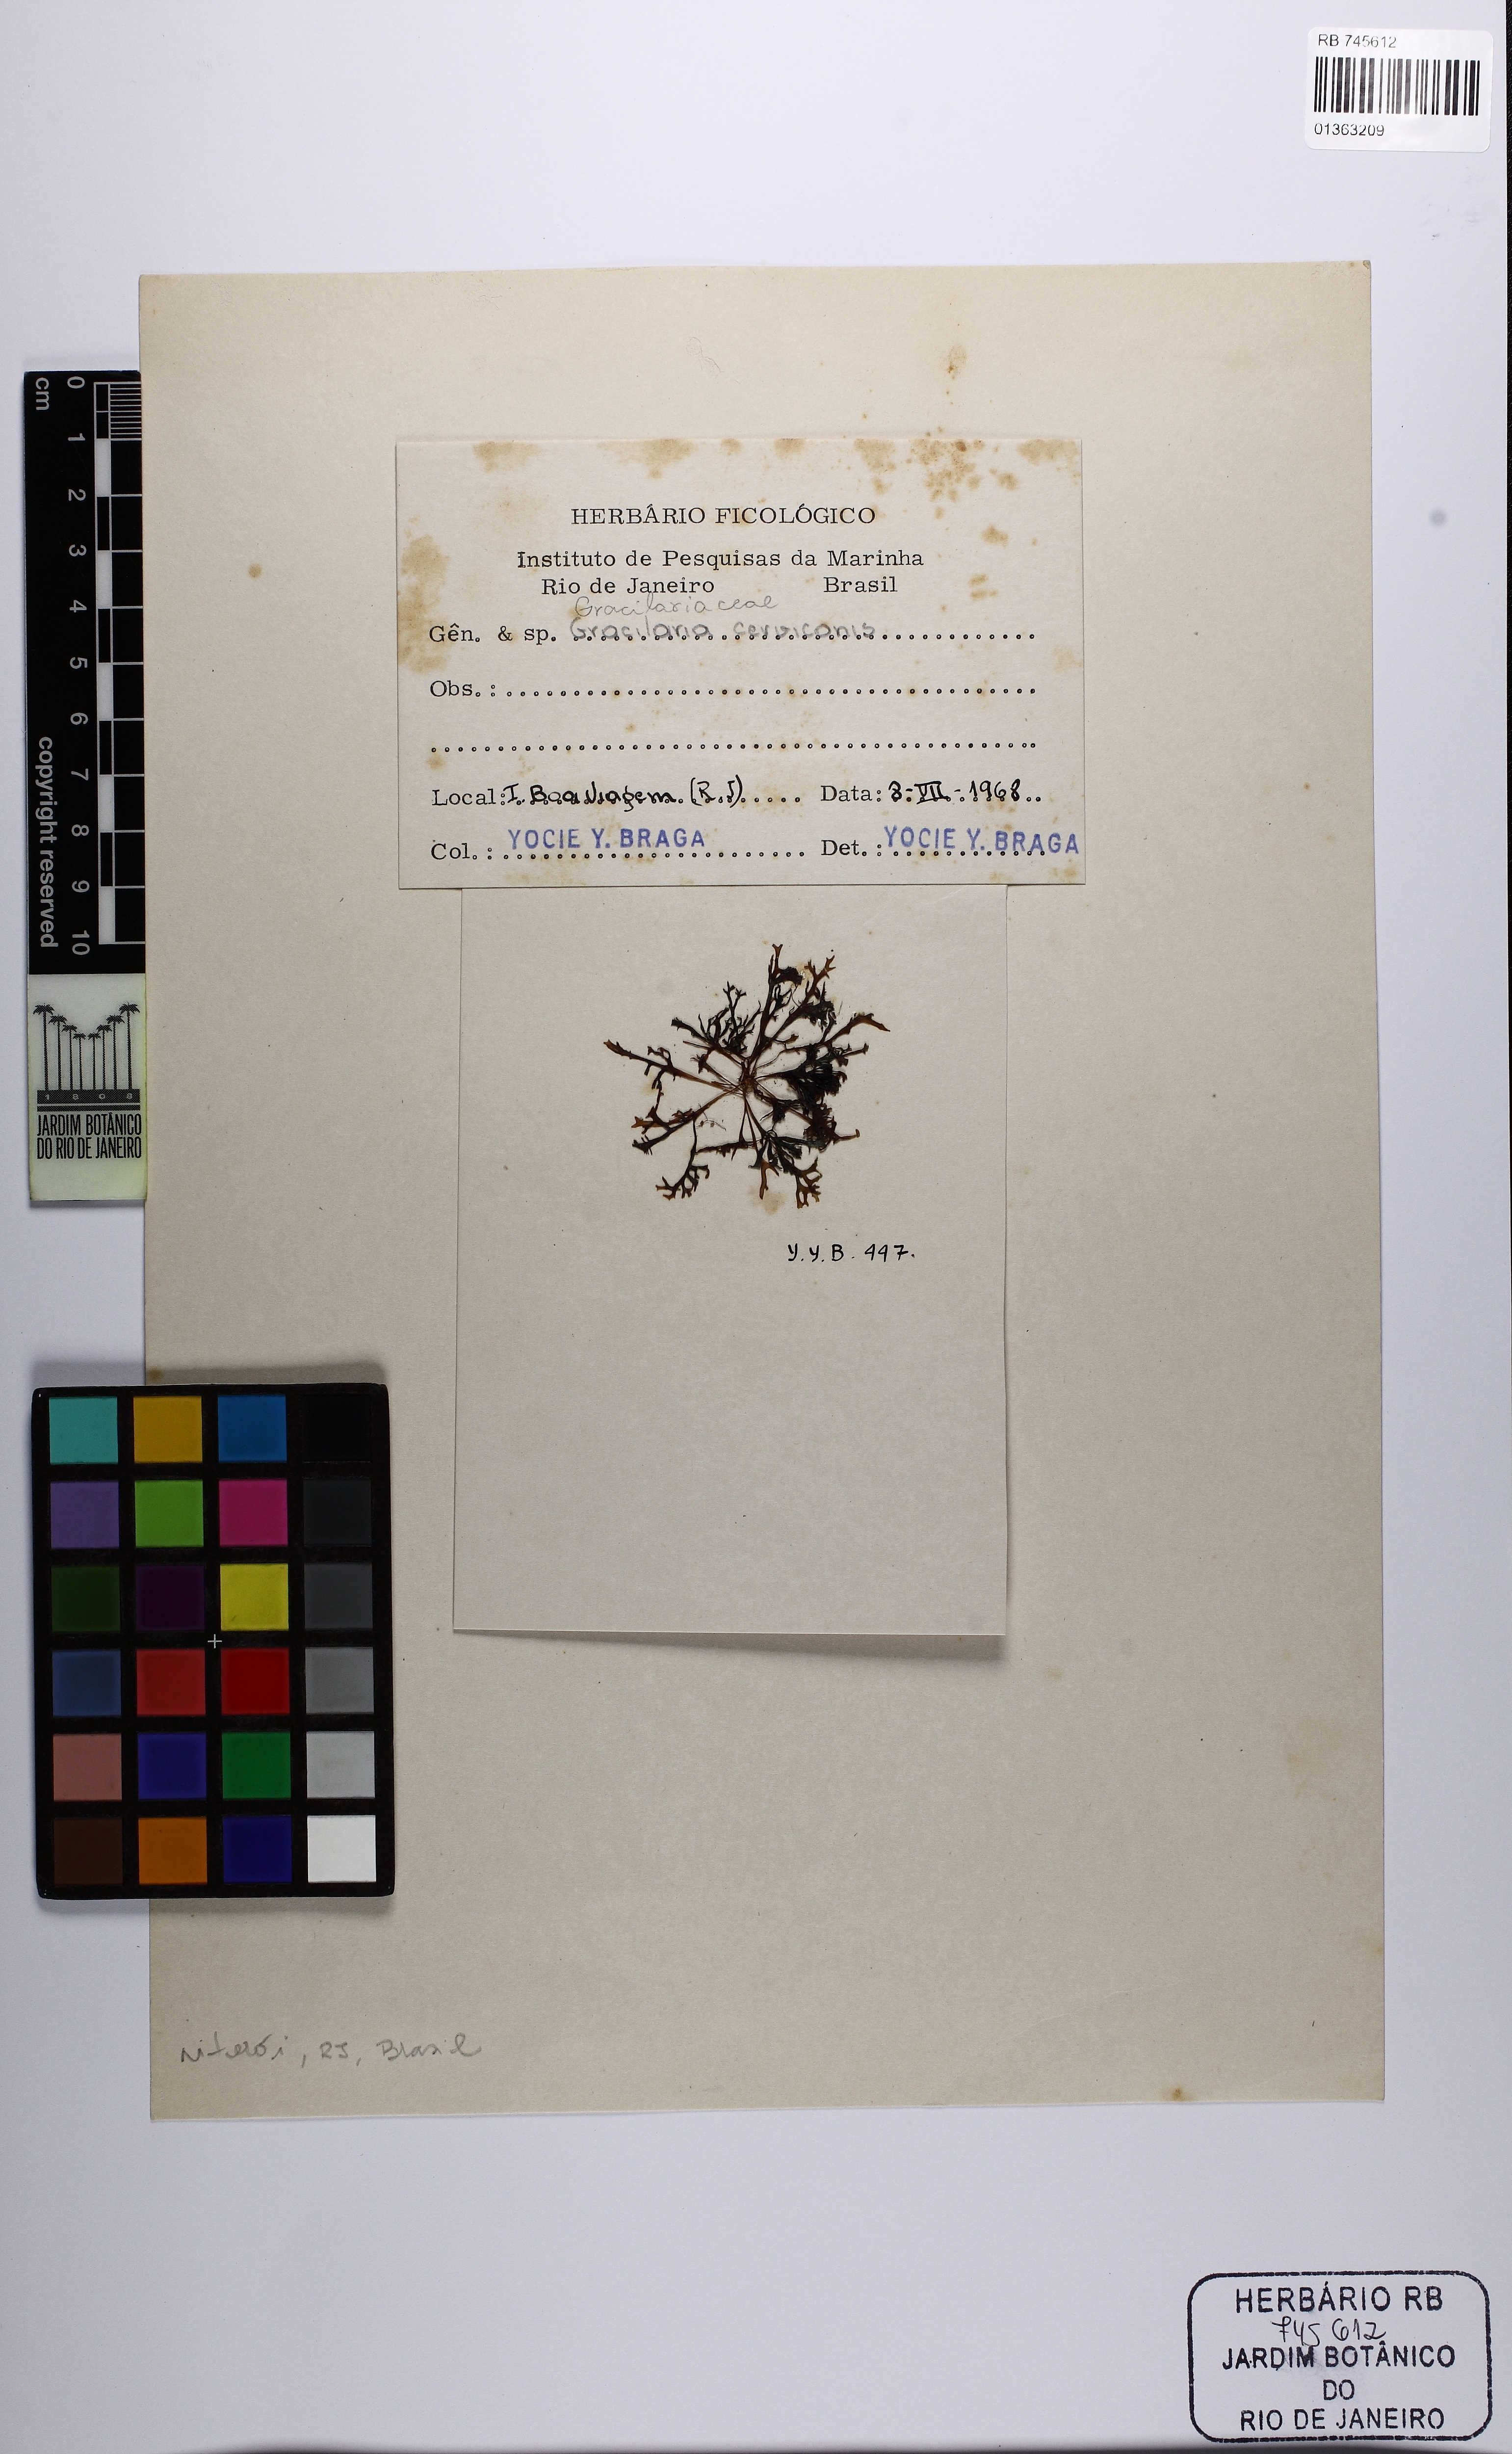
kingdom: Plantae
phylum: Rhodophyta
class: Florideophyceae
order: Gracilariales
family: Gracilariaceae
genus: Gracilaria
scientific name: Gracilaria cervicornis
